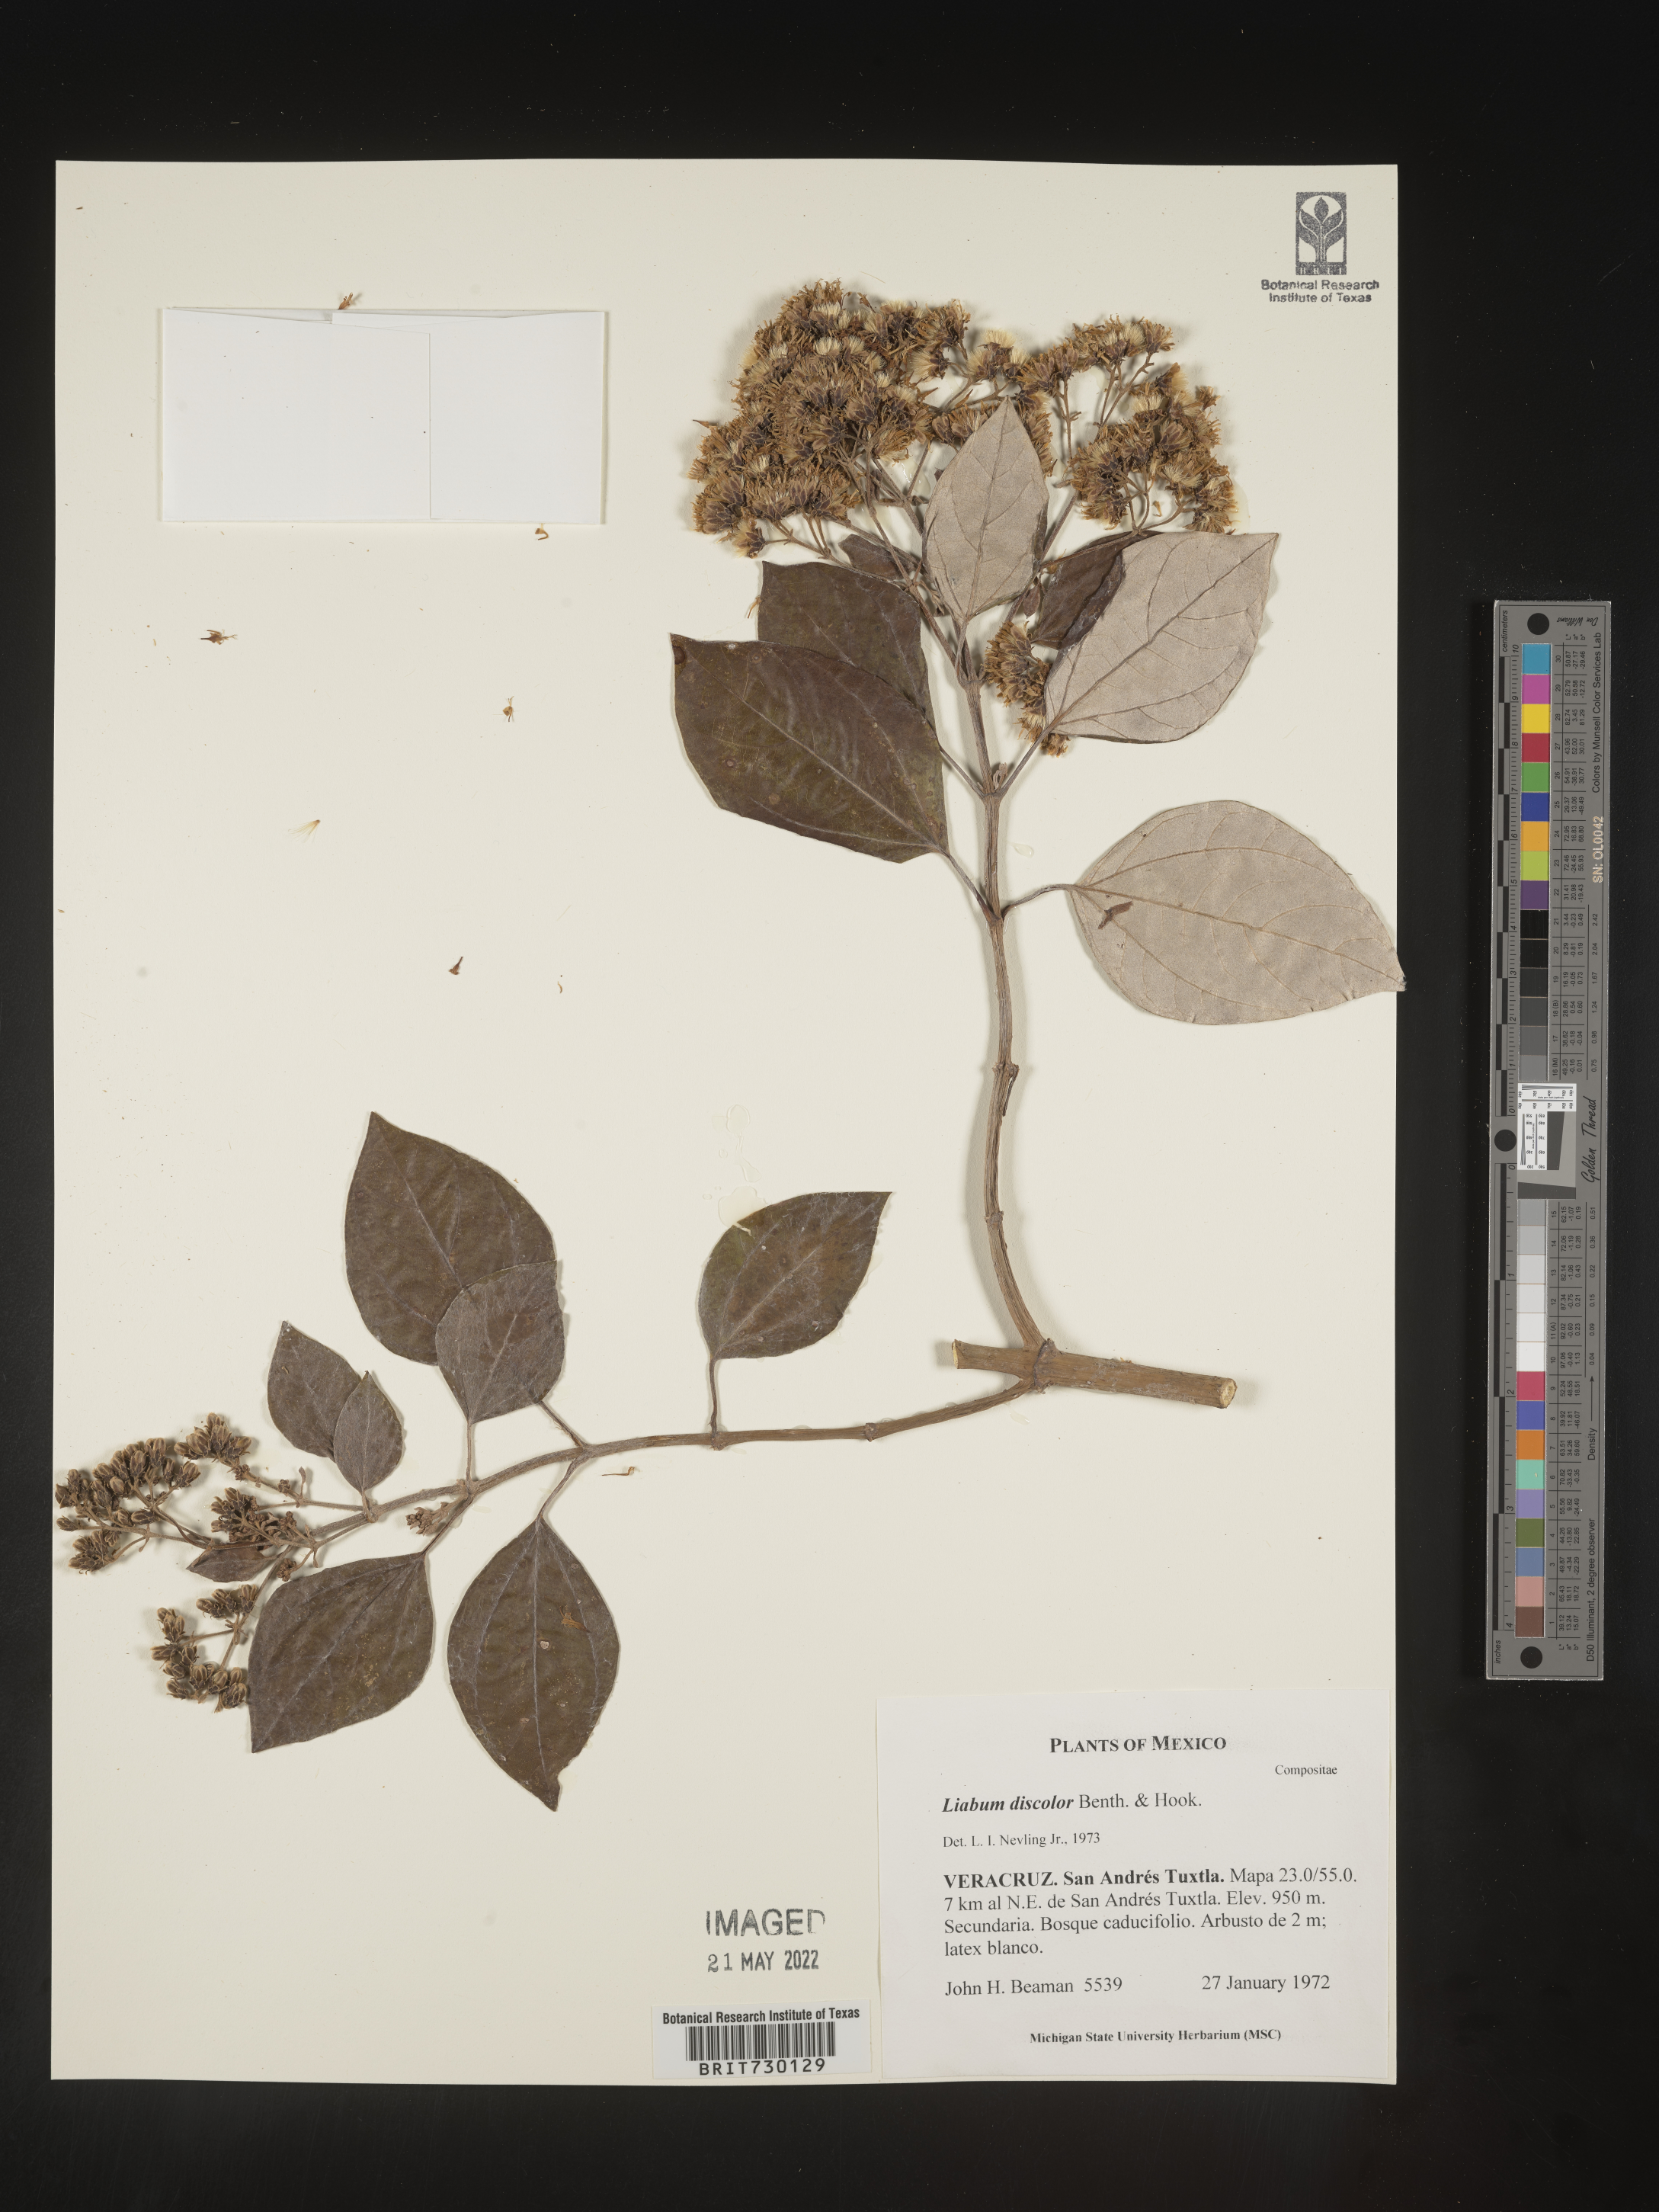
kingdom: Plantae
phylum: Tracheophyta
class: Magnoliopsida
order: Asterales
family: Asteraceae
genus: Liabum
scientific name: Liabum
